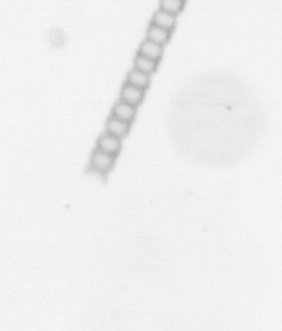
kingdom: Chromista
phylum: Ochrophyta
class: Bacillariophyceae
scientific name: Bacillariophyceae
